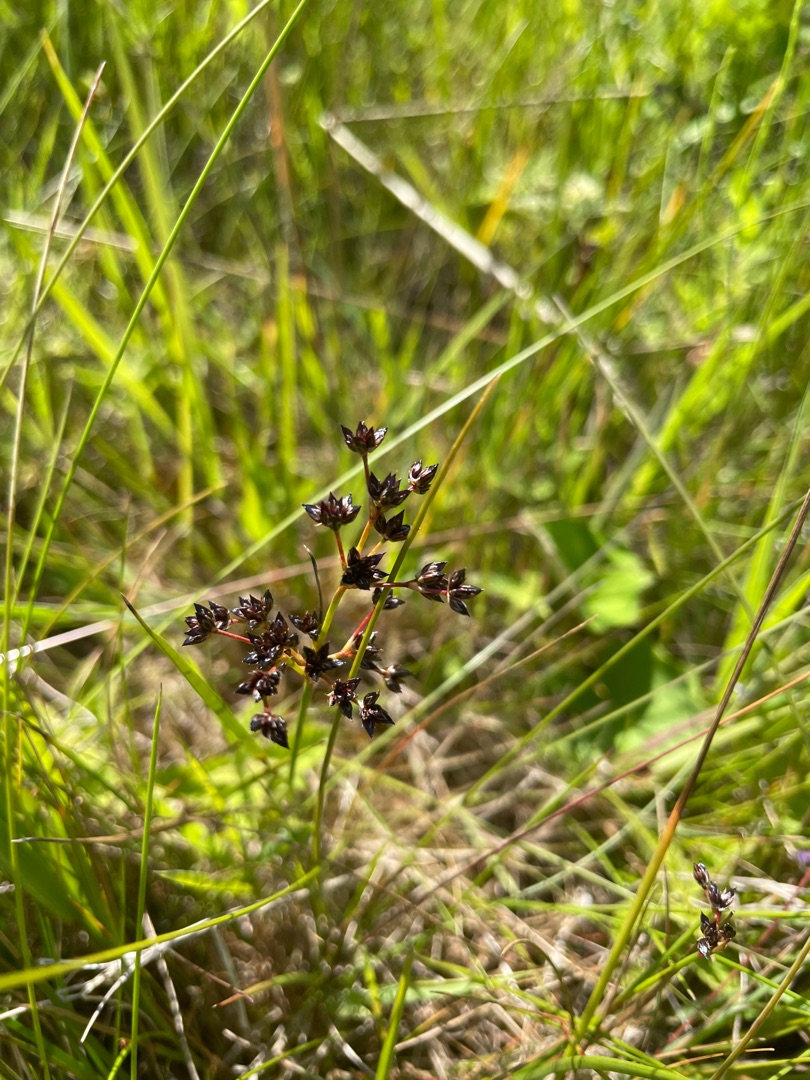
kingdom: Plantae
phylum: Tracheophyta
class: Liliopsida
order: Poales
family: Juncaceae
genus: Juncus
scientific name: Juncus articulatus
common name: Glanskapslet siv
